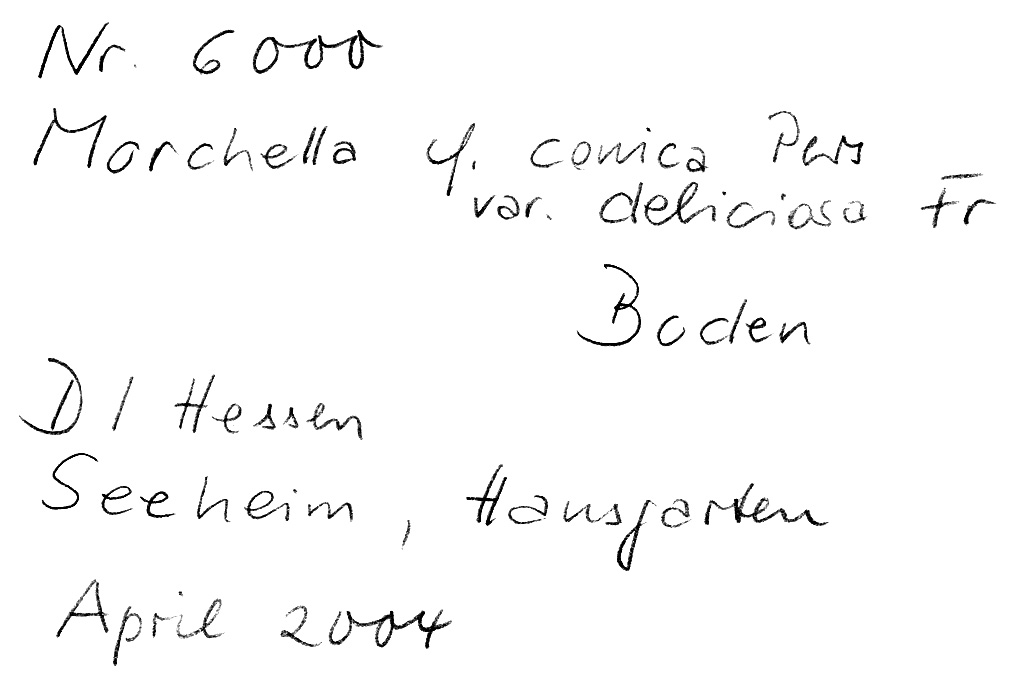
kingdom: Fungi
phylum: Ascomycota
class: Pezizomycetes
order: Pezizales
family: Morchellaceae
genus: Morchella
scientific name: Morchella deliciosa
